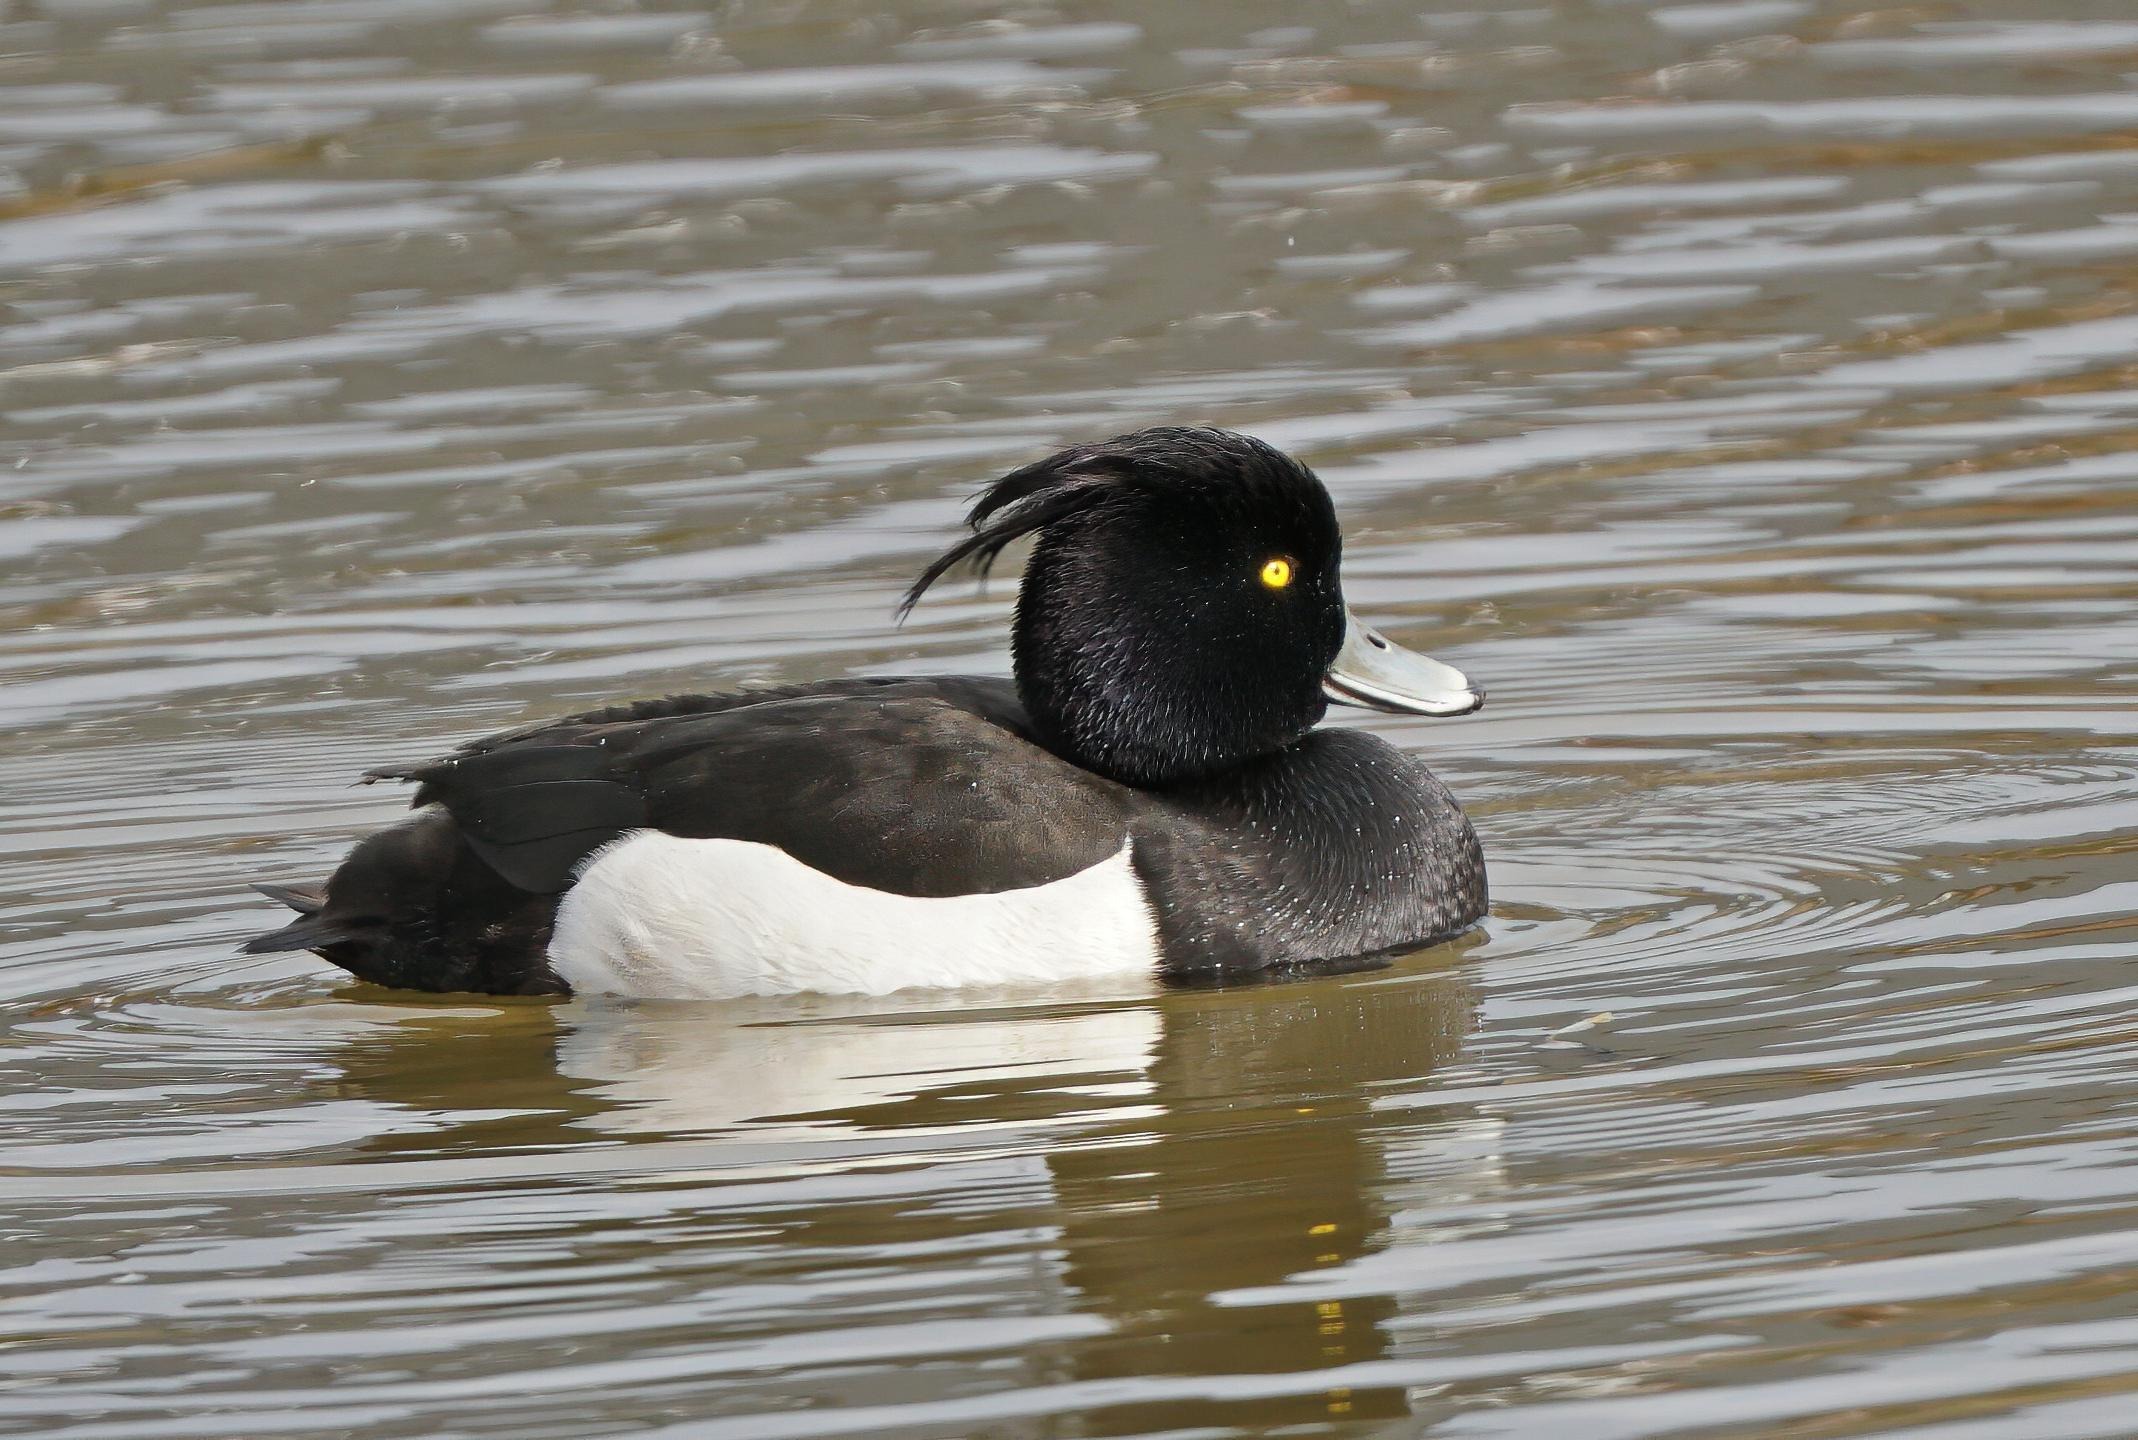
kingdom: Animalia
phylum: Chordata
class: Aves
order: Anseriformes
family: Anatidae
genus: Aythya
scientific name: Aythya fuligula
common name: Troldand
